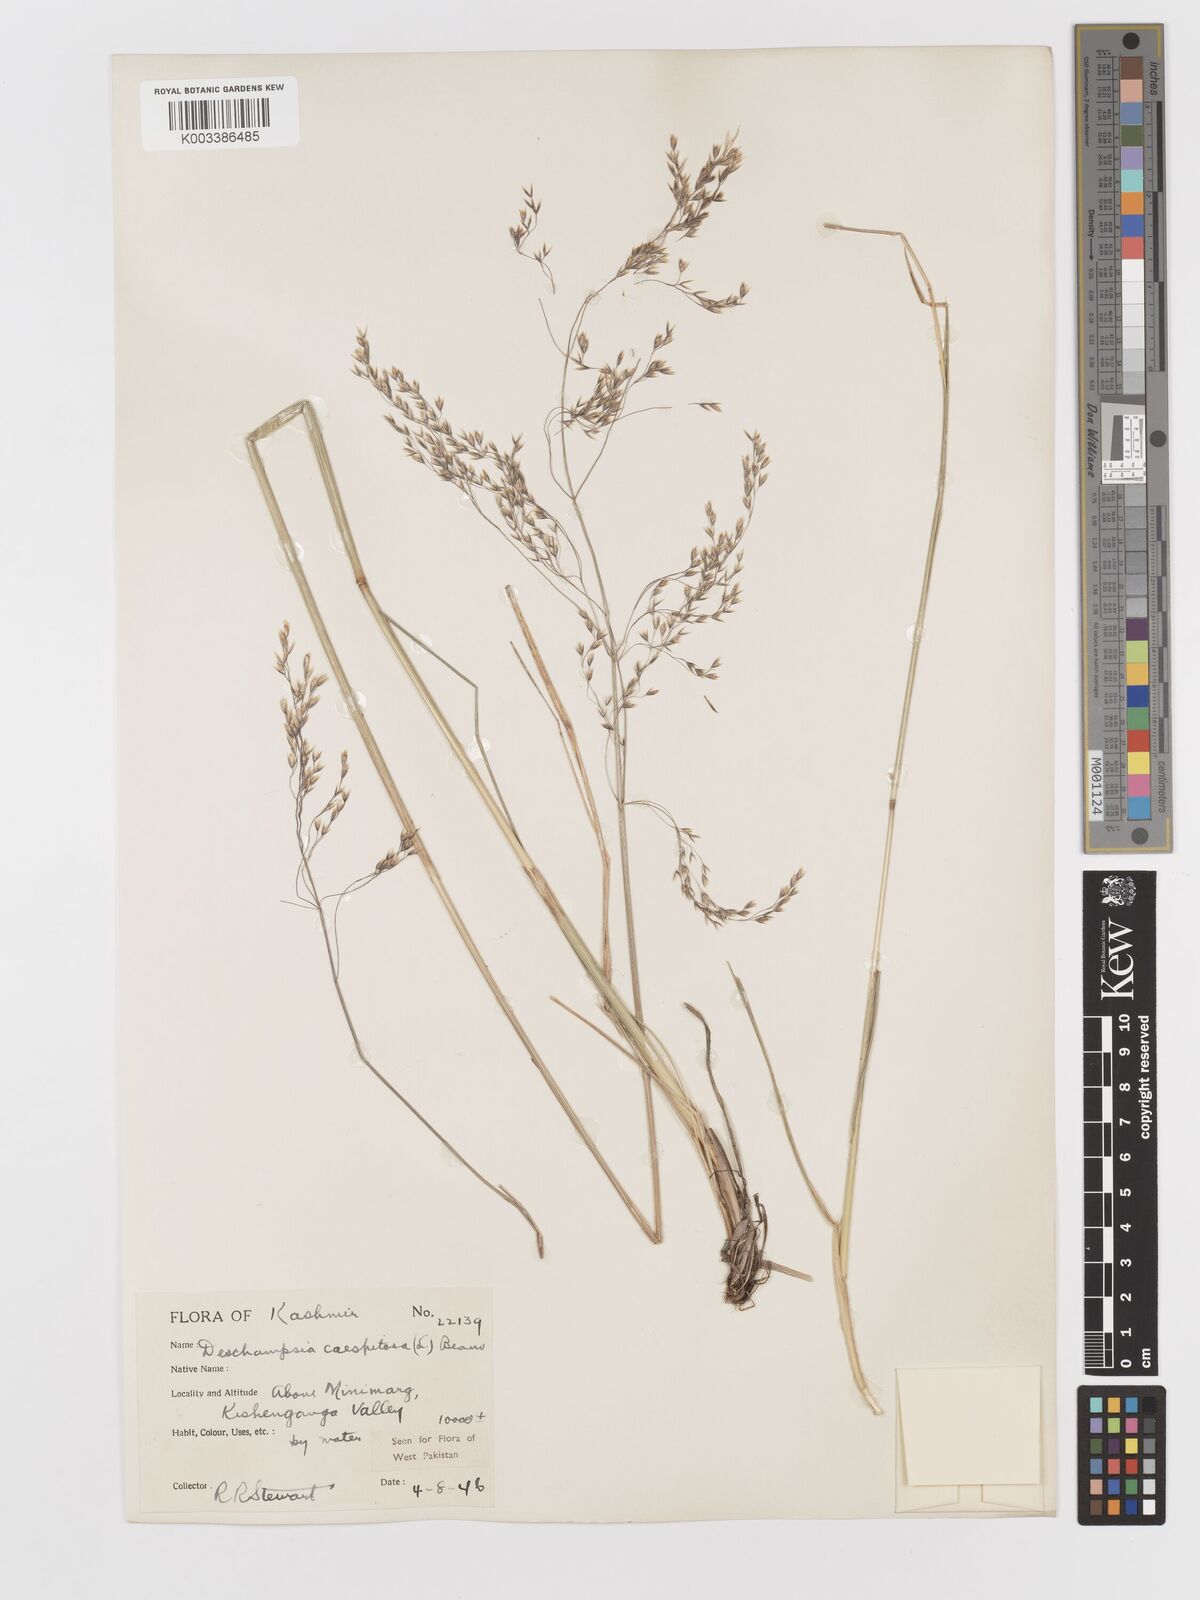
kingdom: Plantae
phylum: Tracheophyta
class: Liliopsida
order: Poales
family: Poaceae
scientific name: Poaceae
